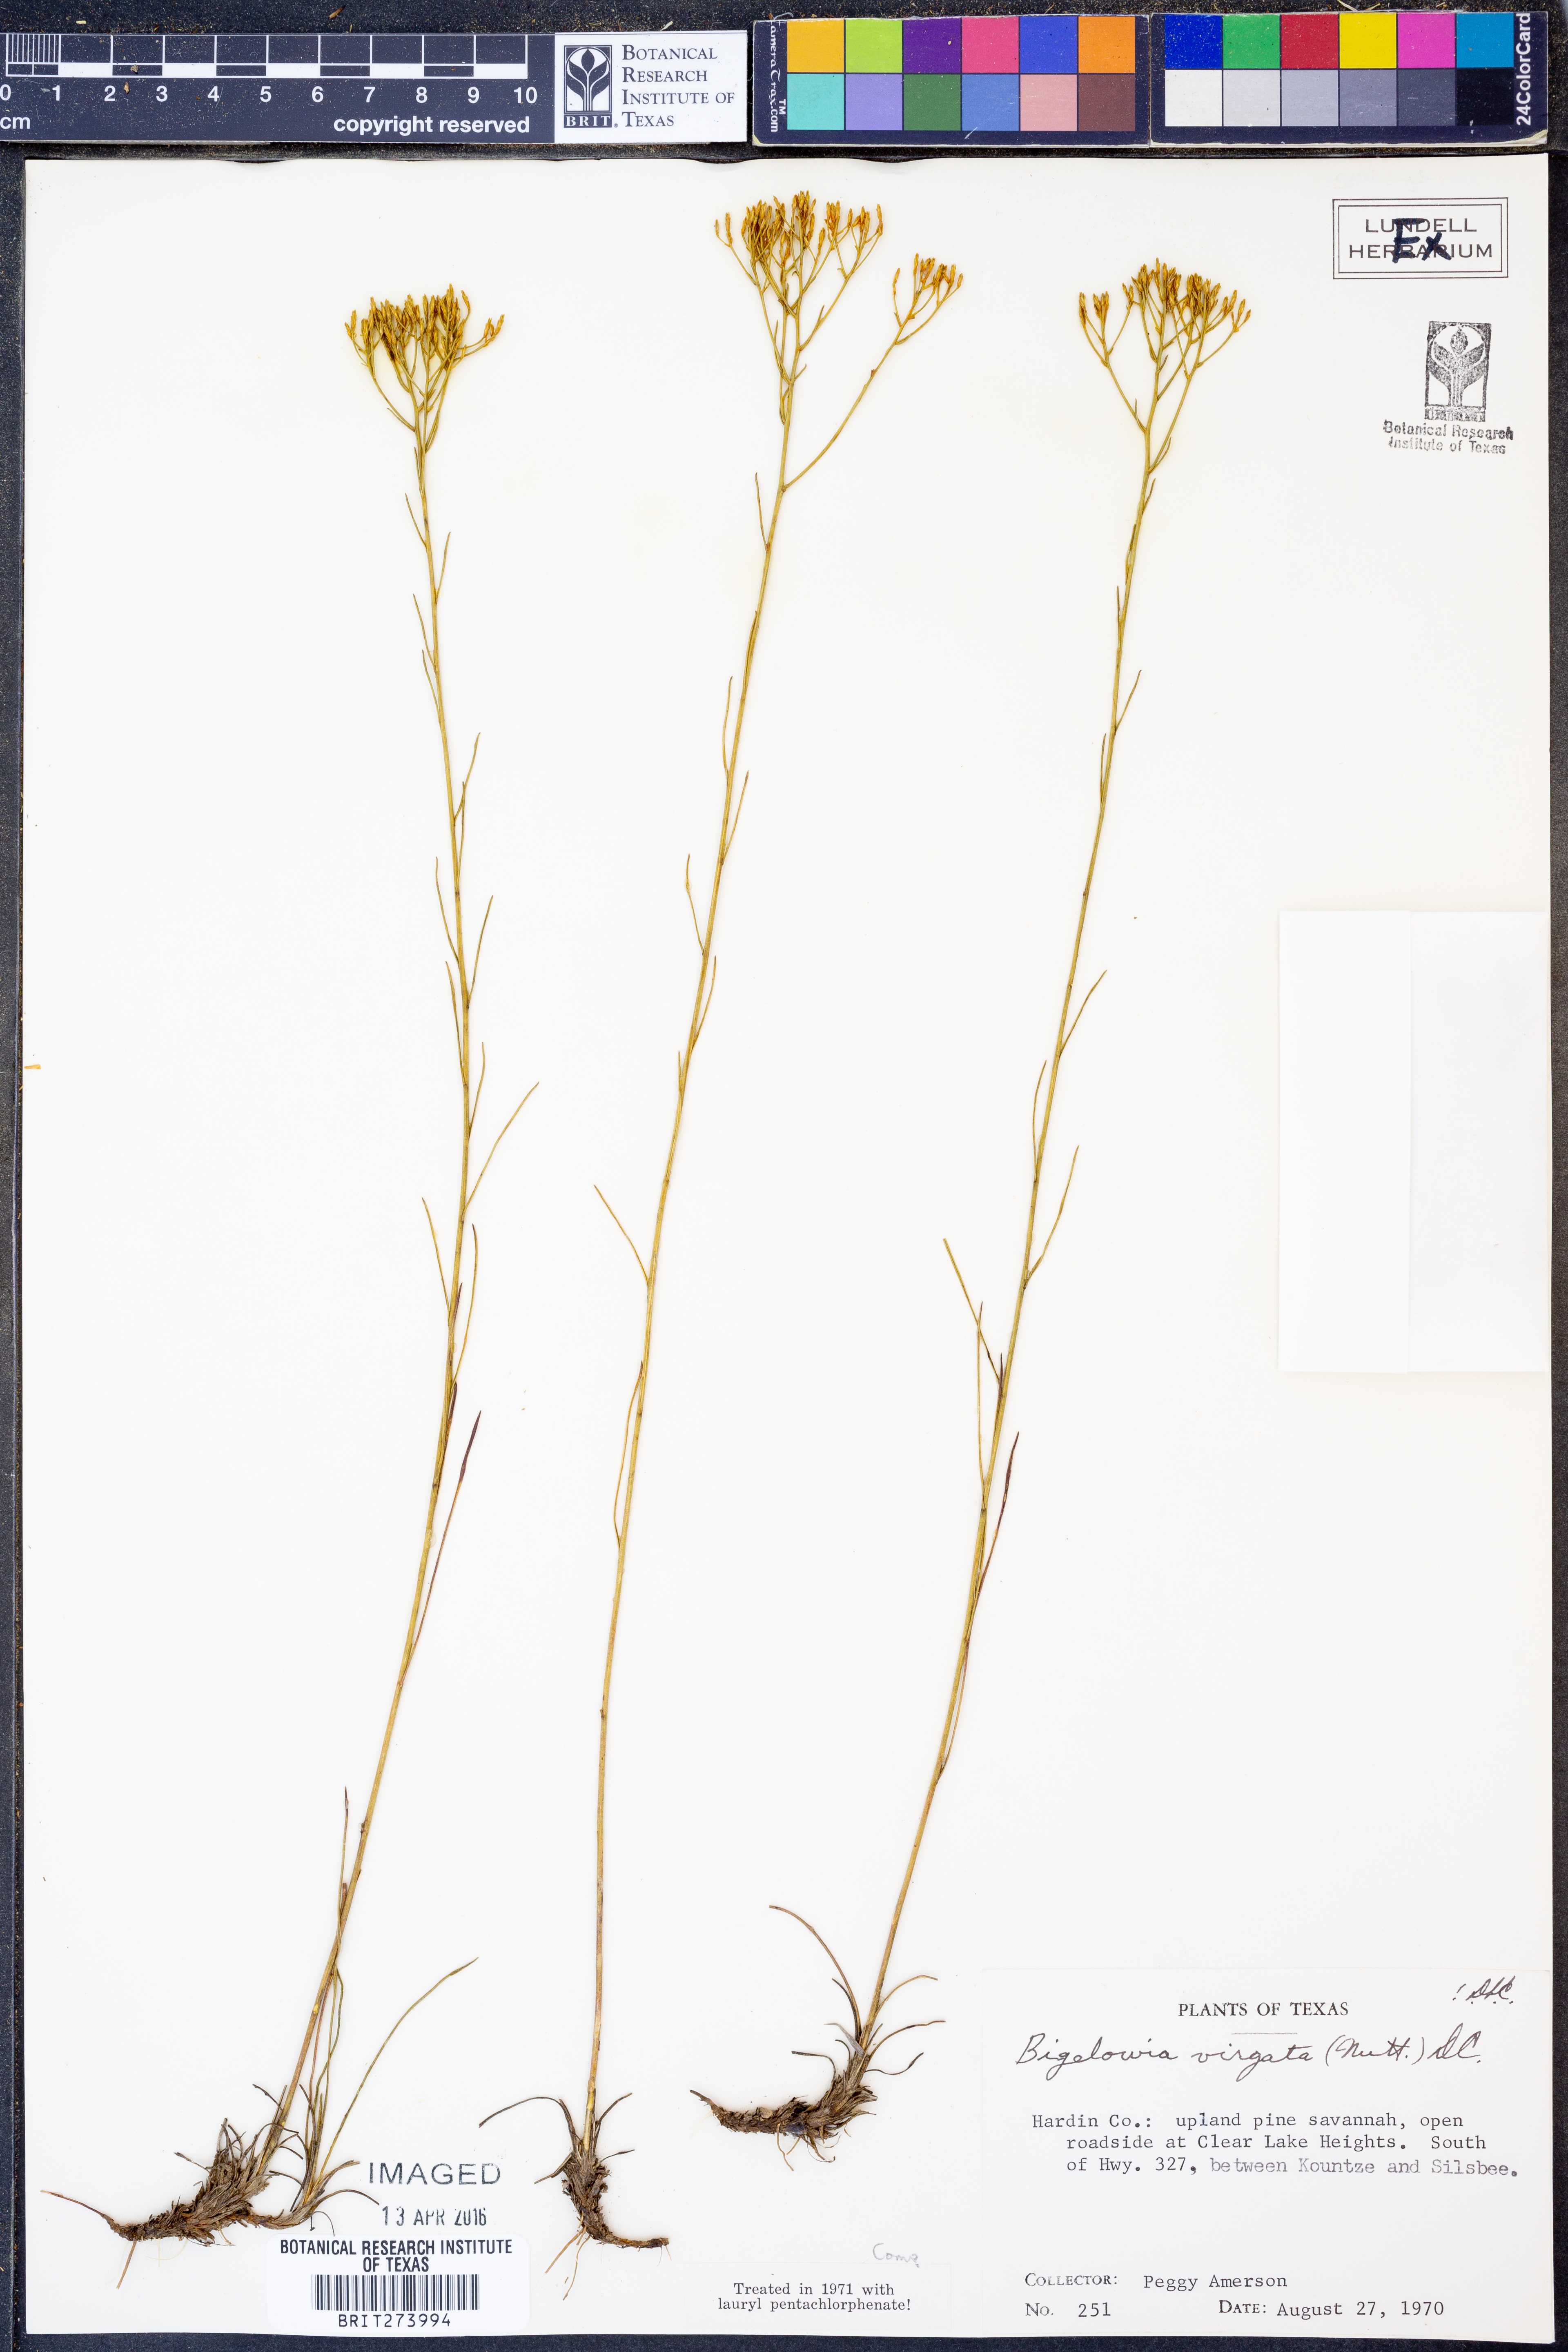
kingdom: Plantae
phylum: Tracheophyta
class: Magnoliopsida
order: Asterales
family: Asteraceae
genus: Bigelowia
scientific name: Bigelowia nudata
